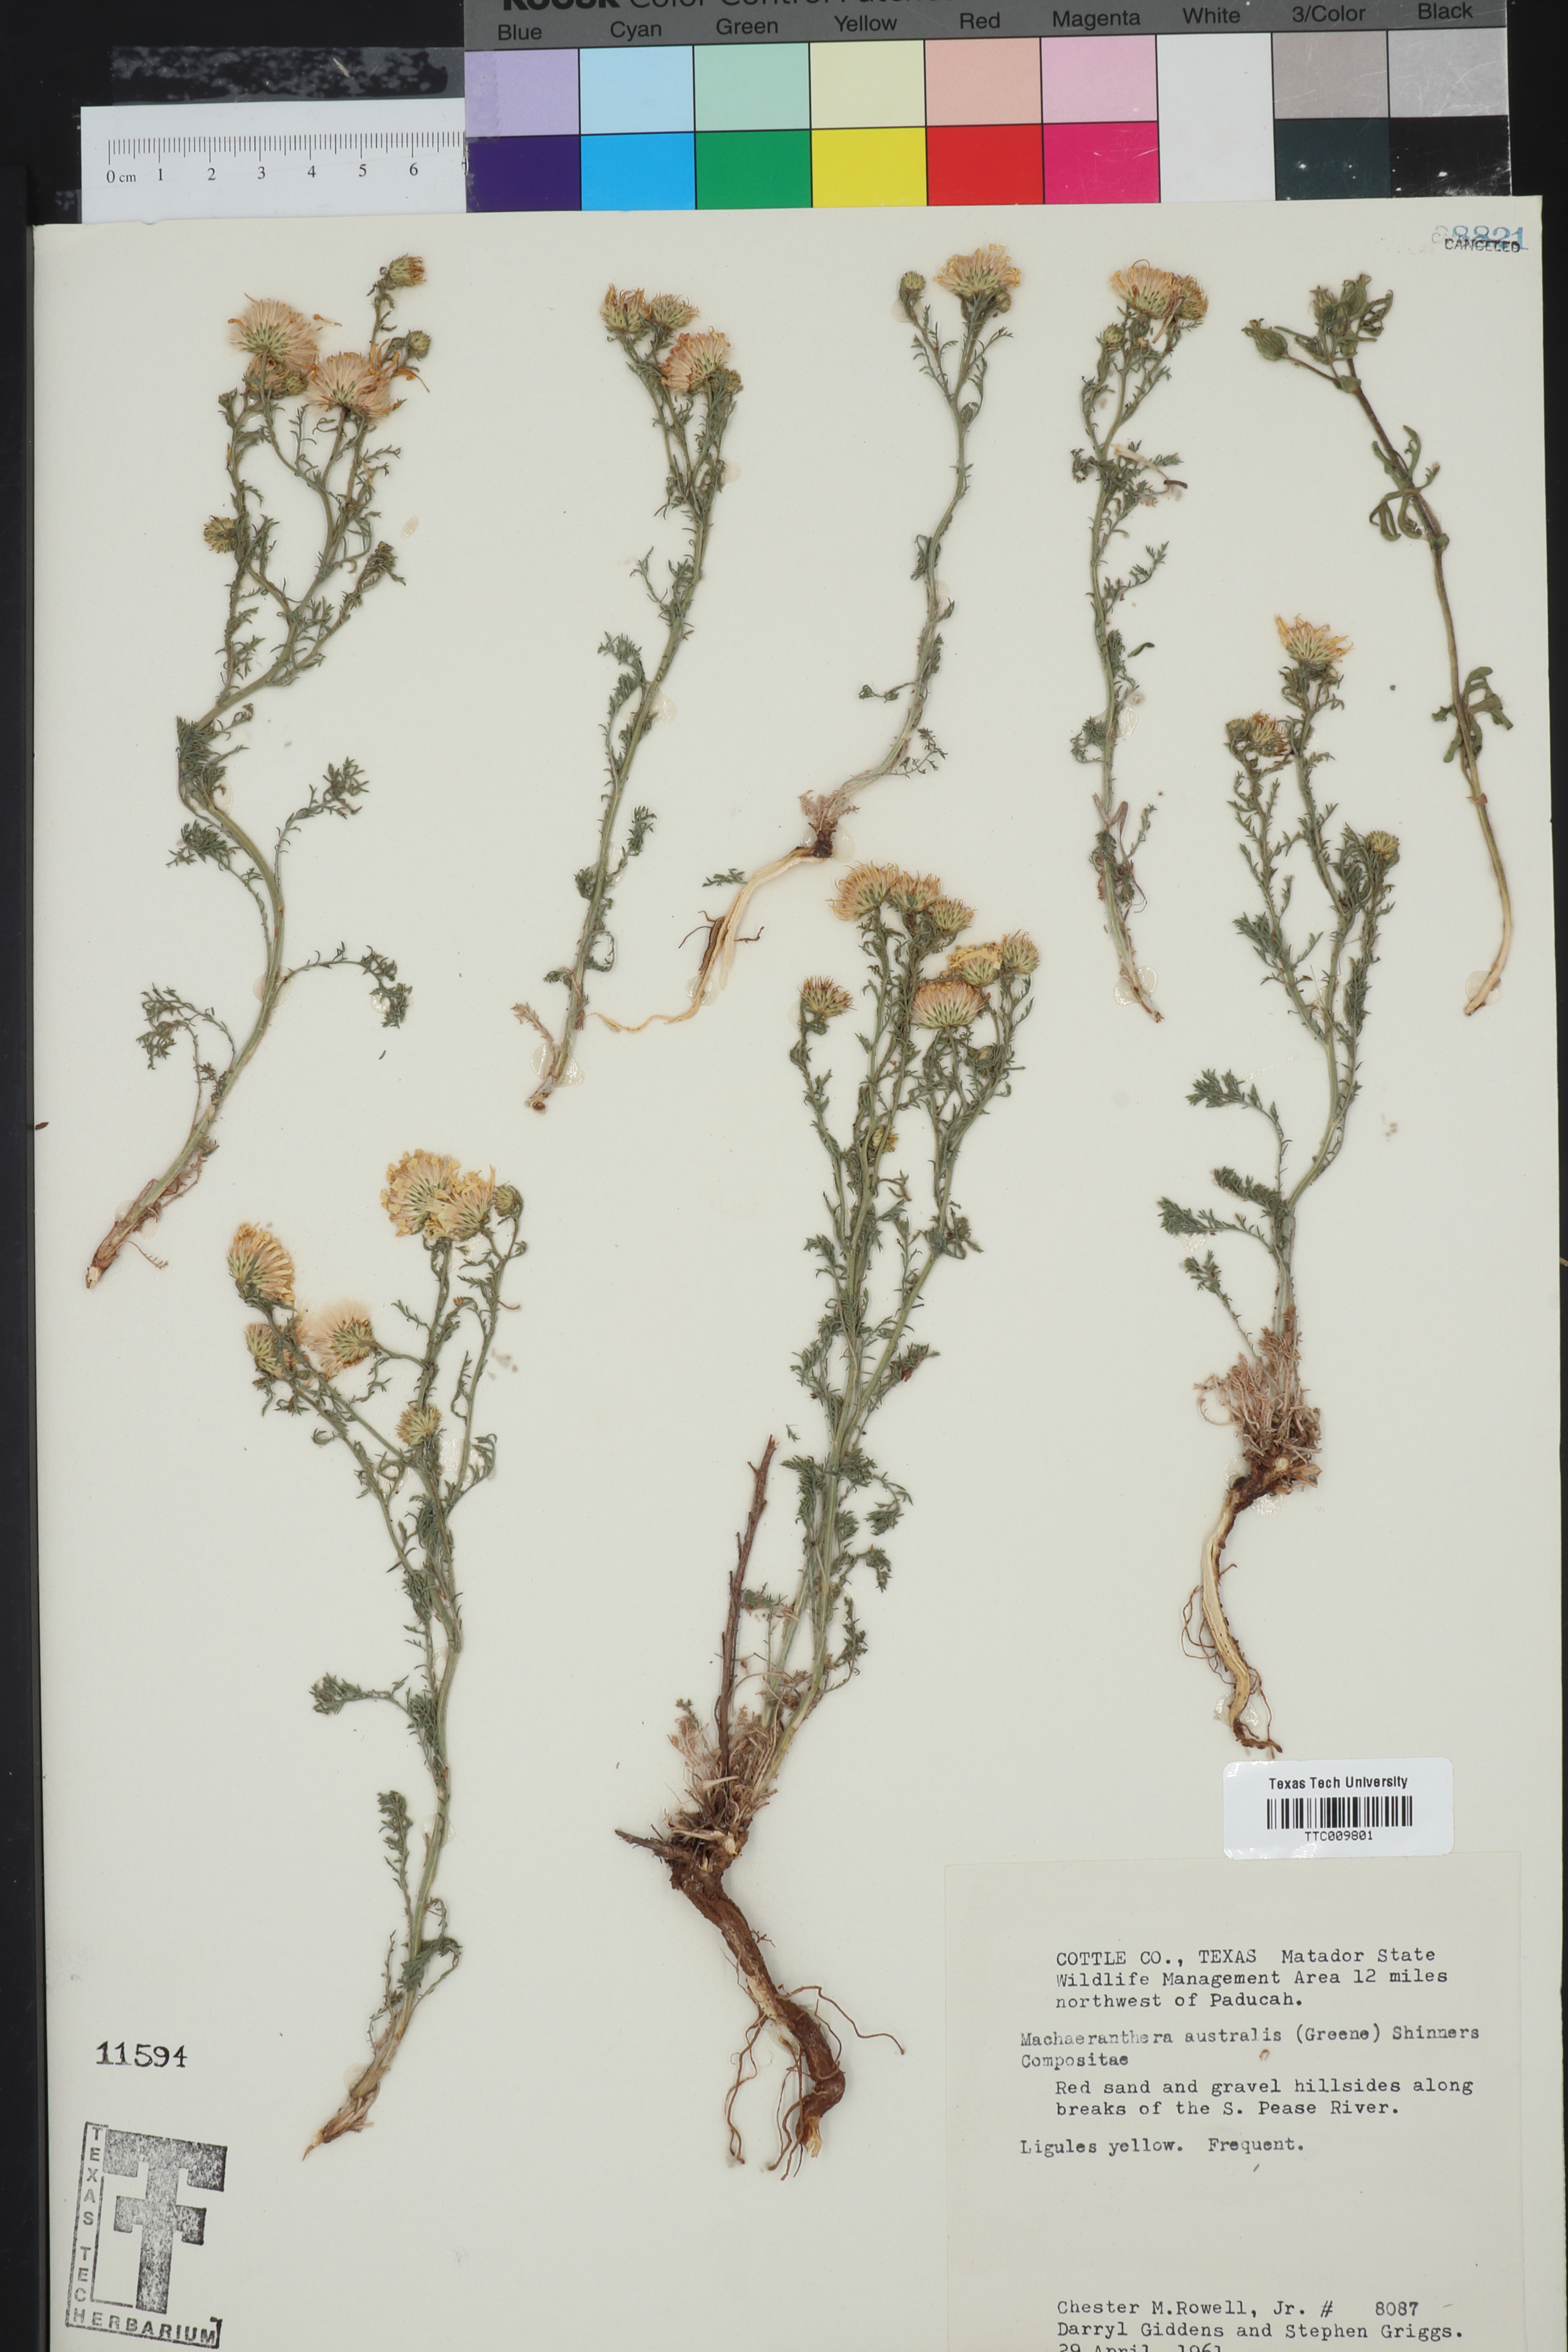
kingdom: Plantae
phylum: Tracheophyta
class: Magnoliopsida
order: Asterales
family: Asteraceae
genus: Xanthisma
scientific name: Xanthisma spinulosum
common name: Spiny goldenweed
